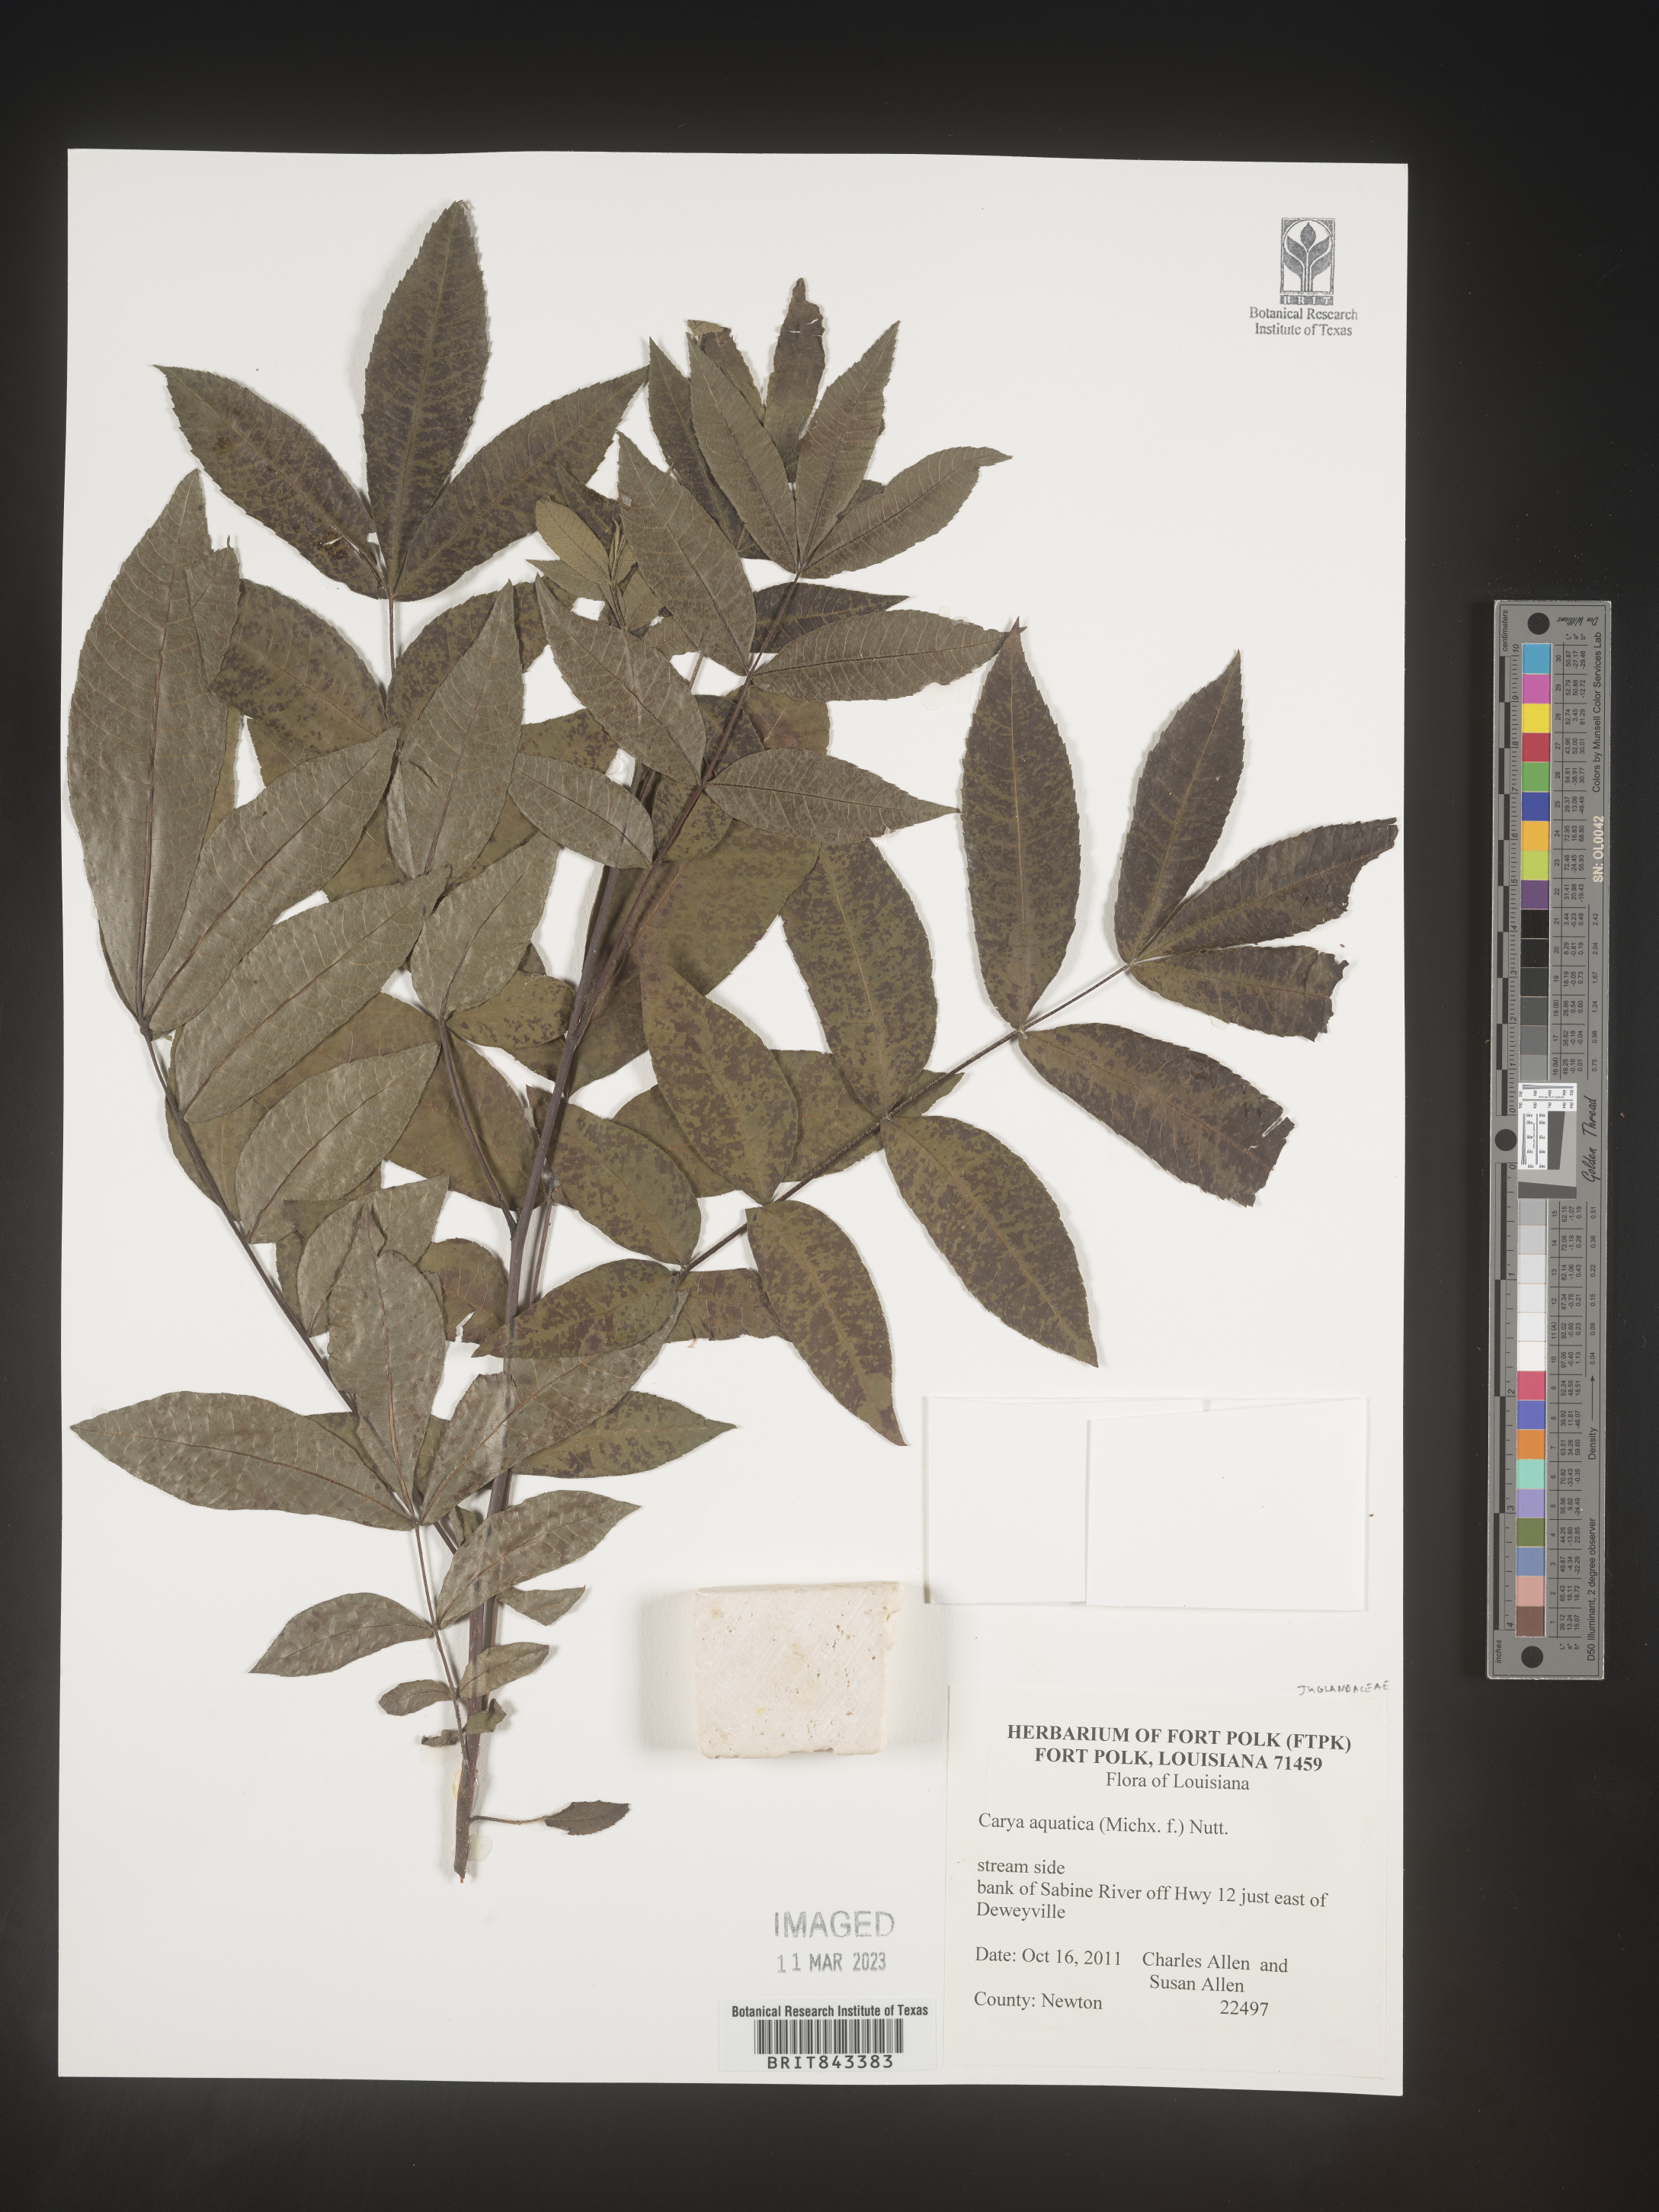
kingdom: Plantae
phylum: Tracheophyta
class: Magnoliopsida
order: Fagales
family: Juglandaceae
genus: Carya
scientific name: Carya aquatica
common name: Water hickory
